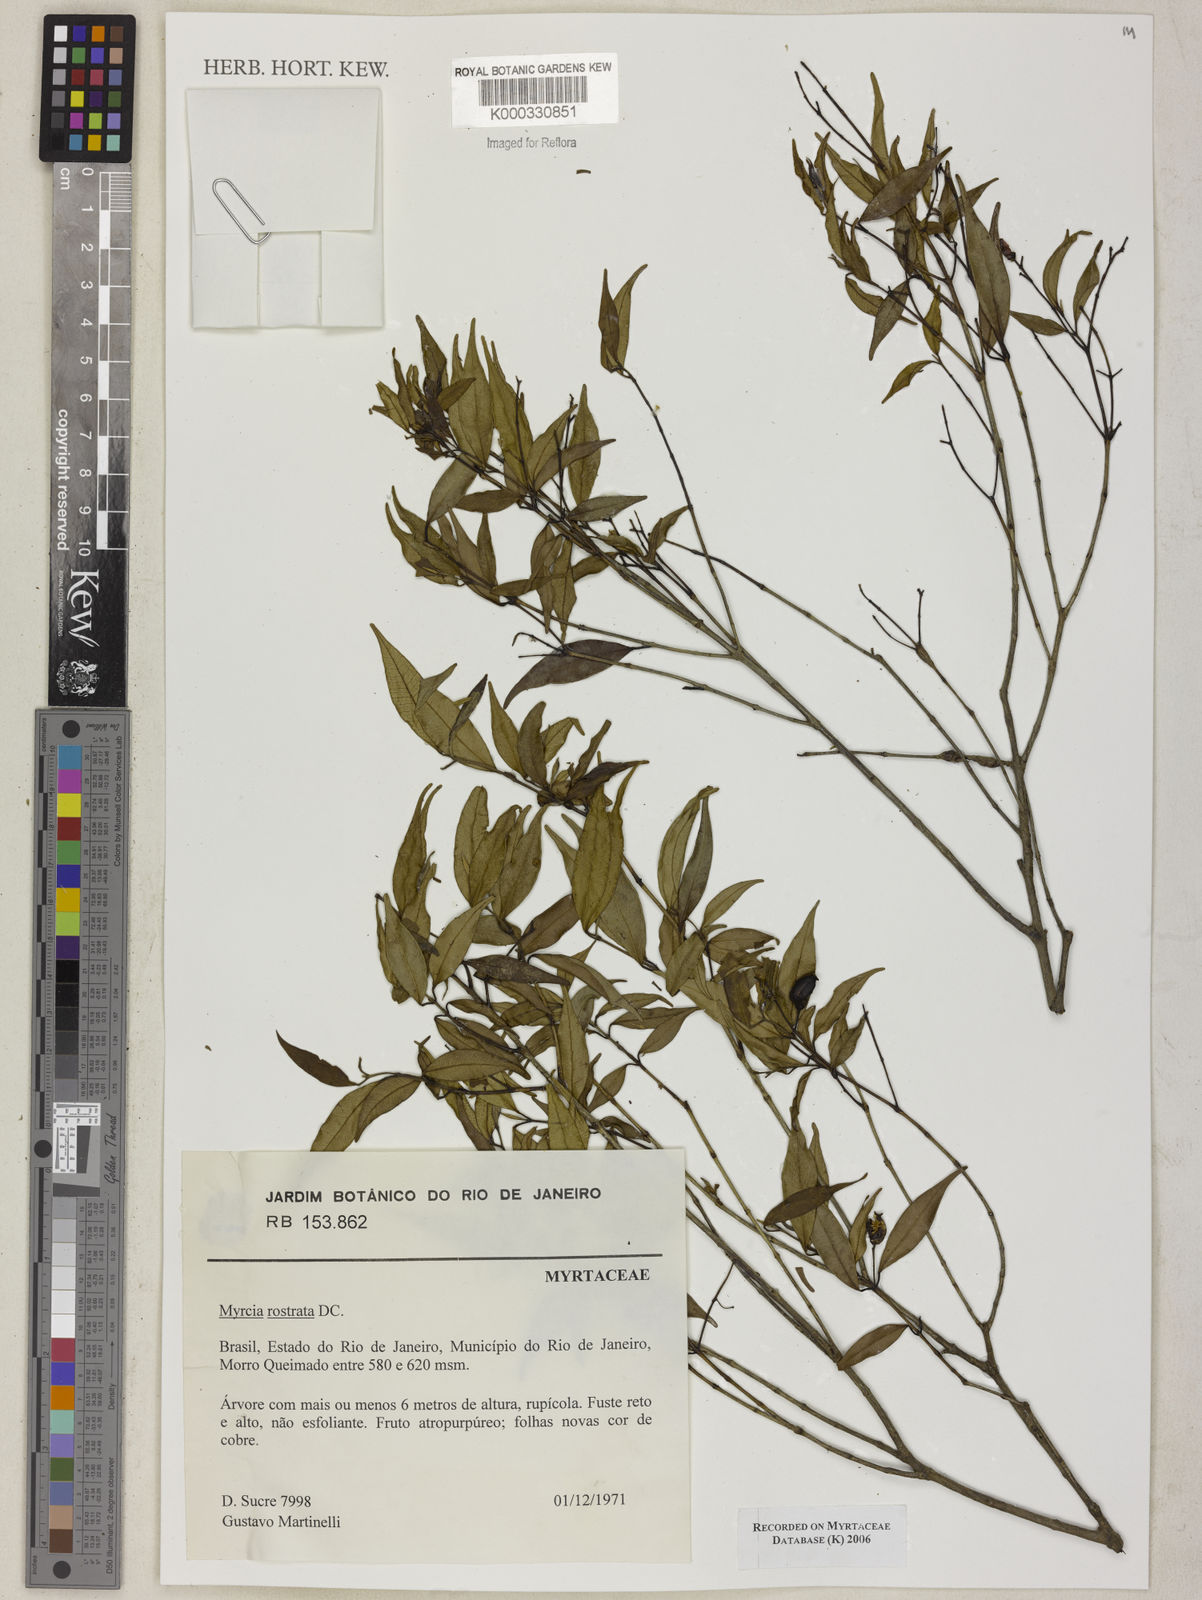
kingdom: Plantae
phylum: Tracheophyta
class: Magnoliopsida
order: Myrtales
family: Myrtaceae
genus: Myrcia
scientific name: Myrcia splendens
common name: Surinam cherry
